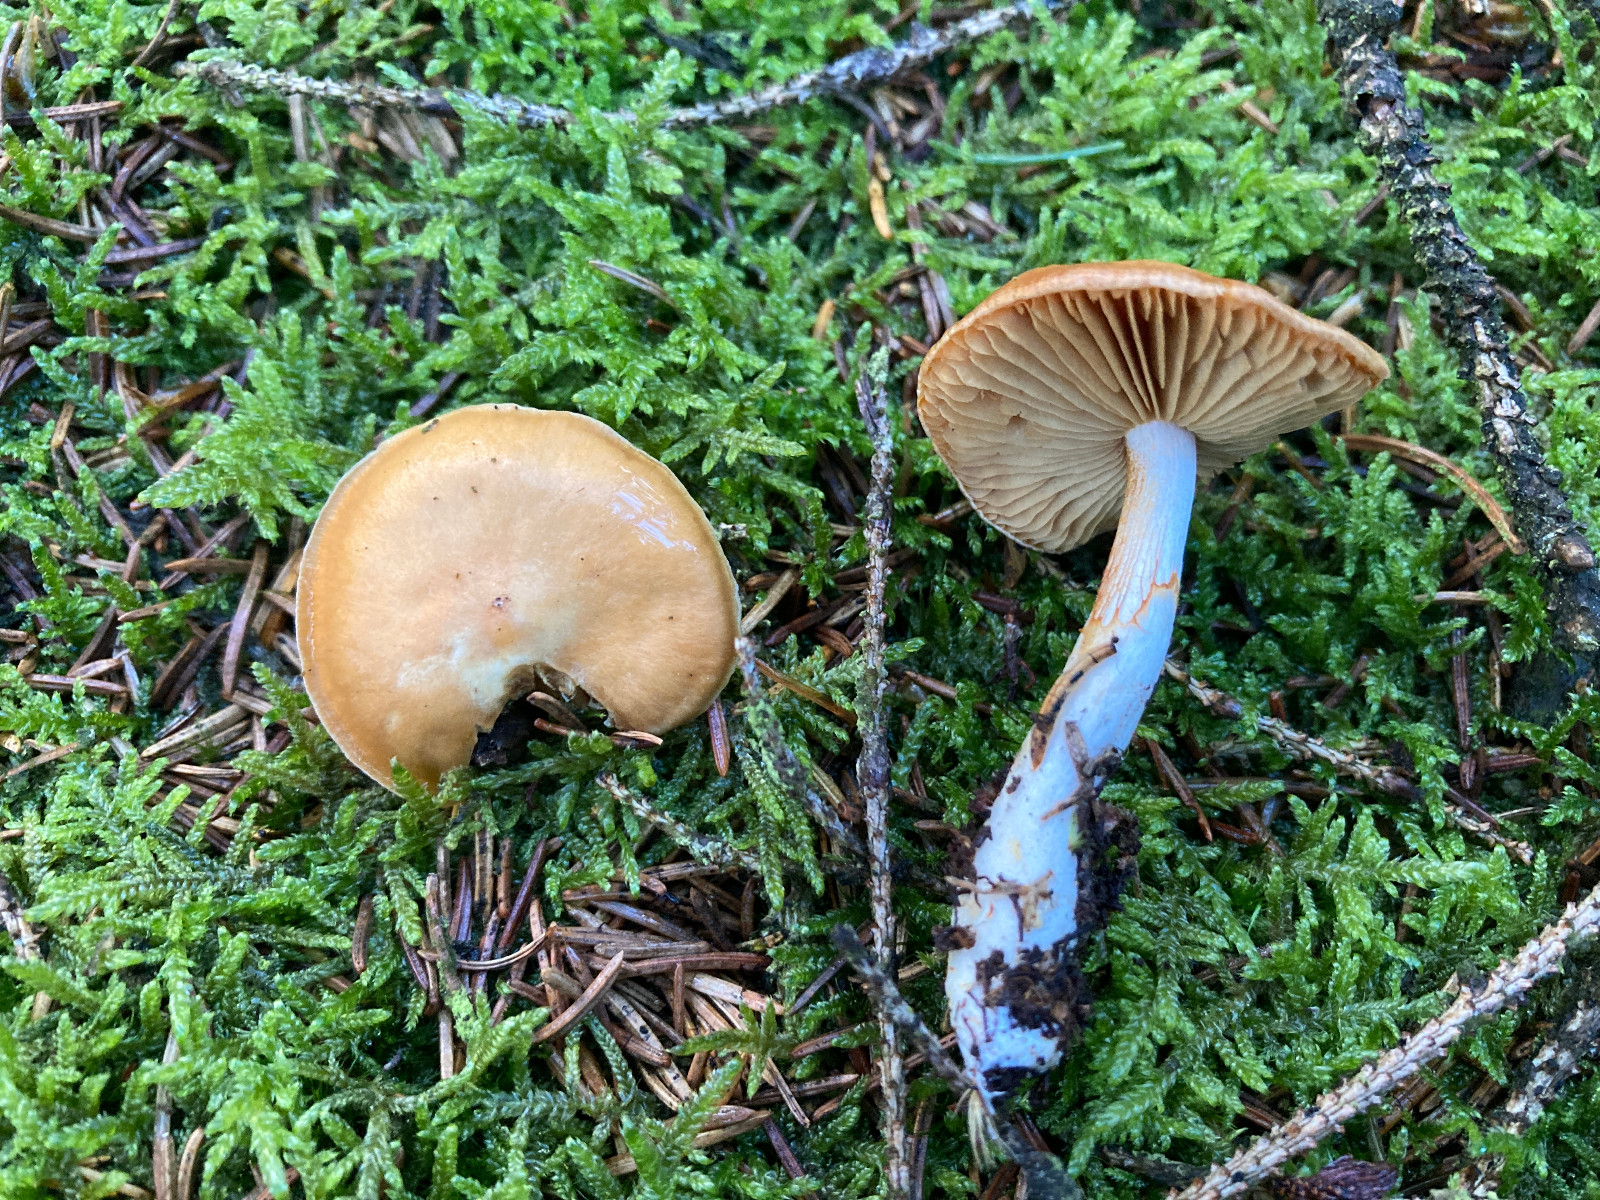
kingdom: Fungi
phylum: Basidiomycota
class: Agaricomycetes
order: Agaricales
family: Cortinariaceae
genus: Cortinarius
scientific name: Cortinarius
